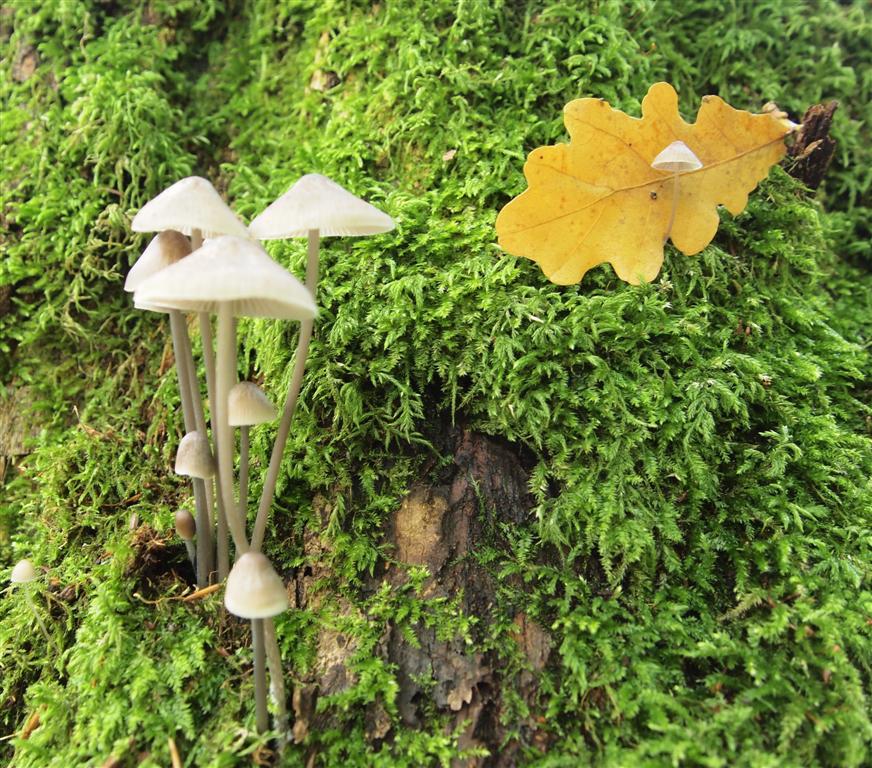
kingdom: Fungi
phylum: Basidiomycota
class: Agaricomycetes
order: Agaricales
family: Mycenaceae
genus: Mycena
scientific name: Mycena polygramma
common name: mangestribet huesvamp
